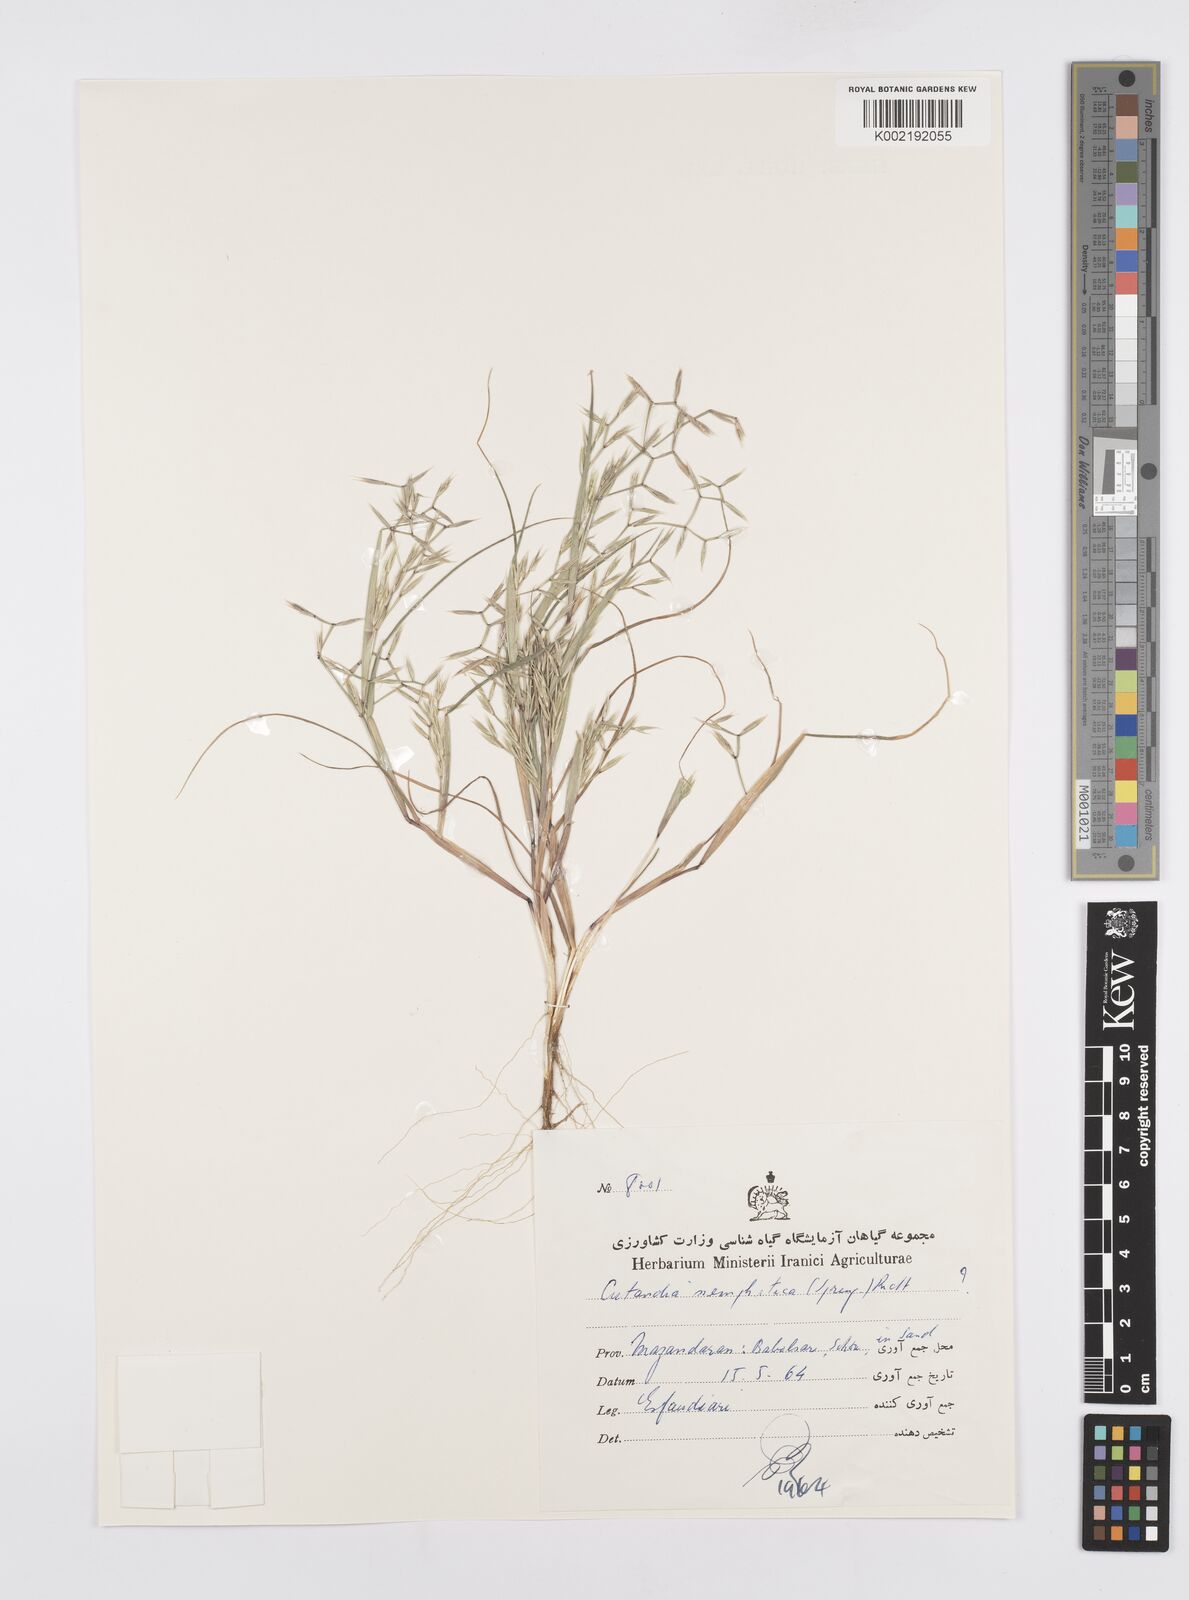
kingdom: Plantae
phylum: Tracheophyta
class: Liliopsida
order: Poales
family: Poaceae
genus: Cutandia
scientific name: Cutandia memphitica
